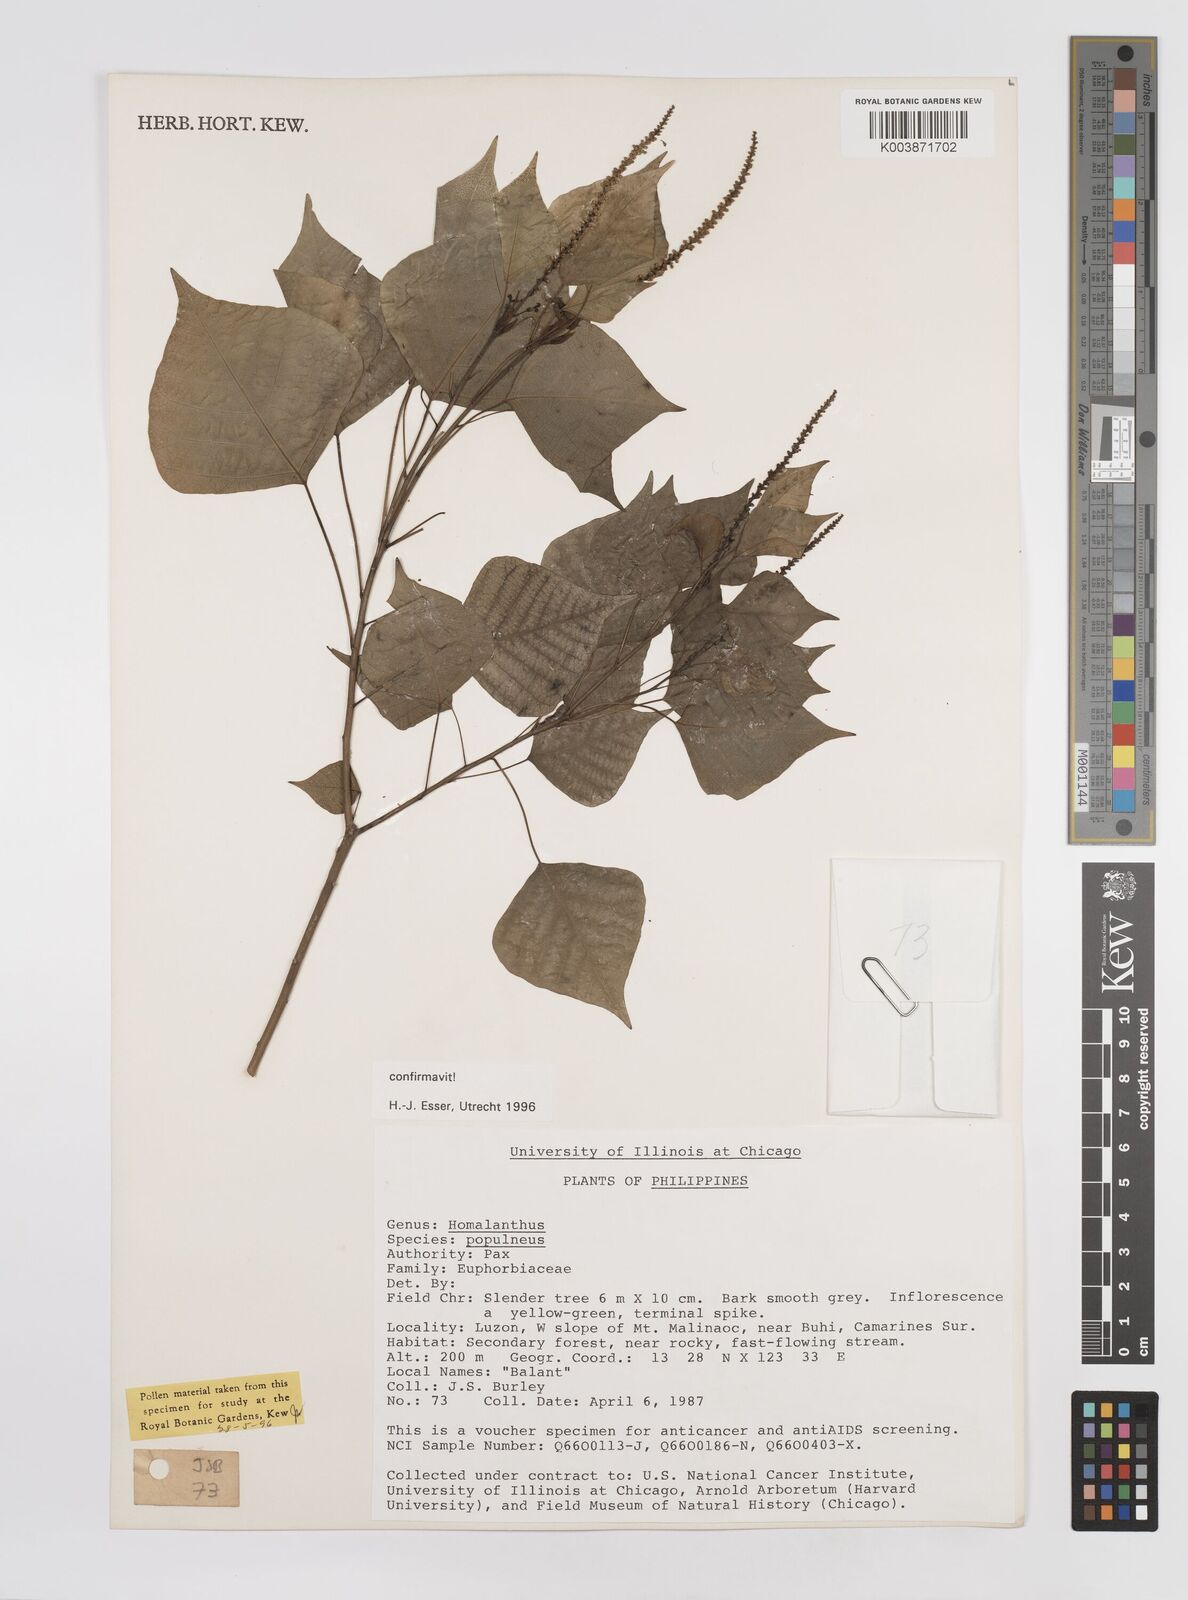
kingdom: Plantae
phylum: Tracheophyta
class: Magnoliopsida
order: Malpighiales
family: Euphorbiaceae
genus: Homalanthus
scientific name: Homalanthus populneus
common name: Spurge
